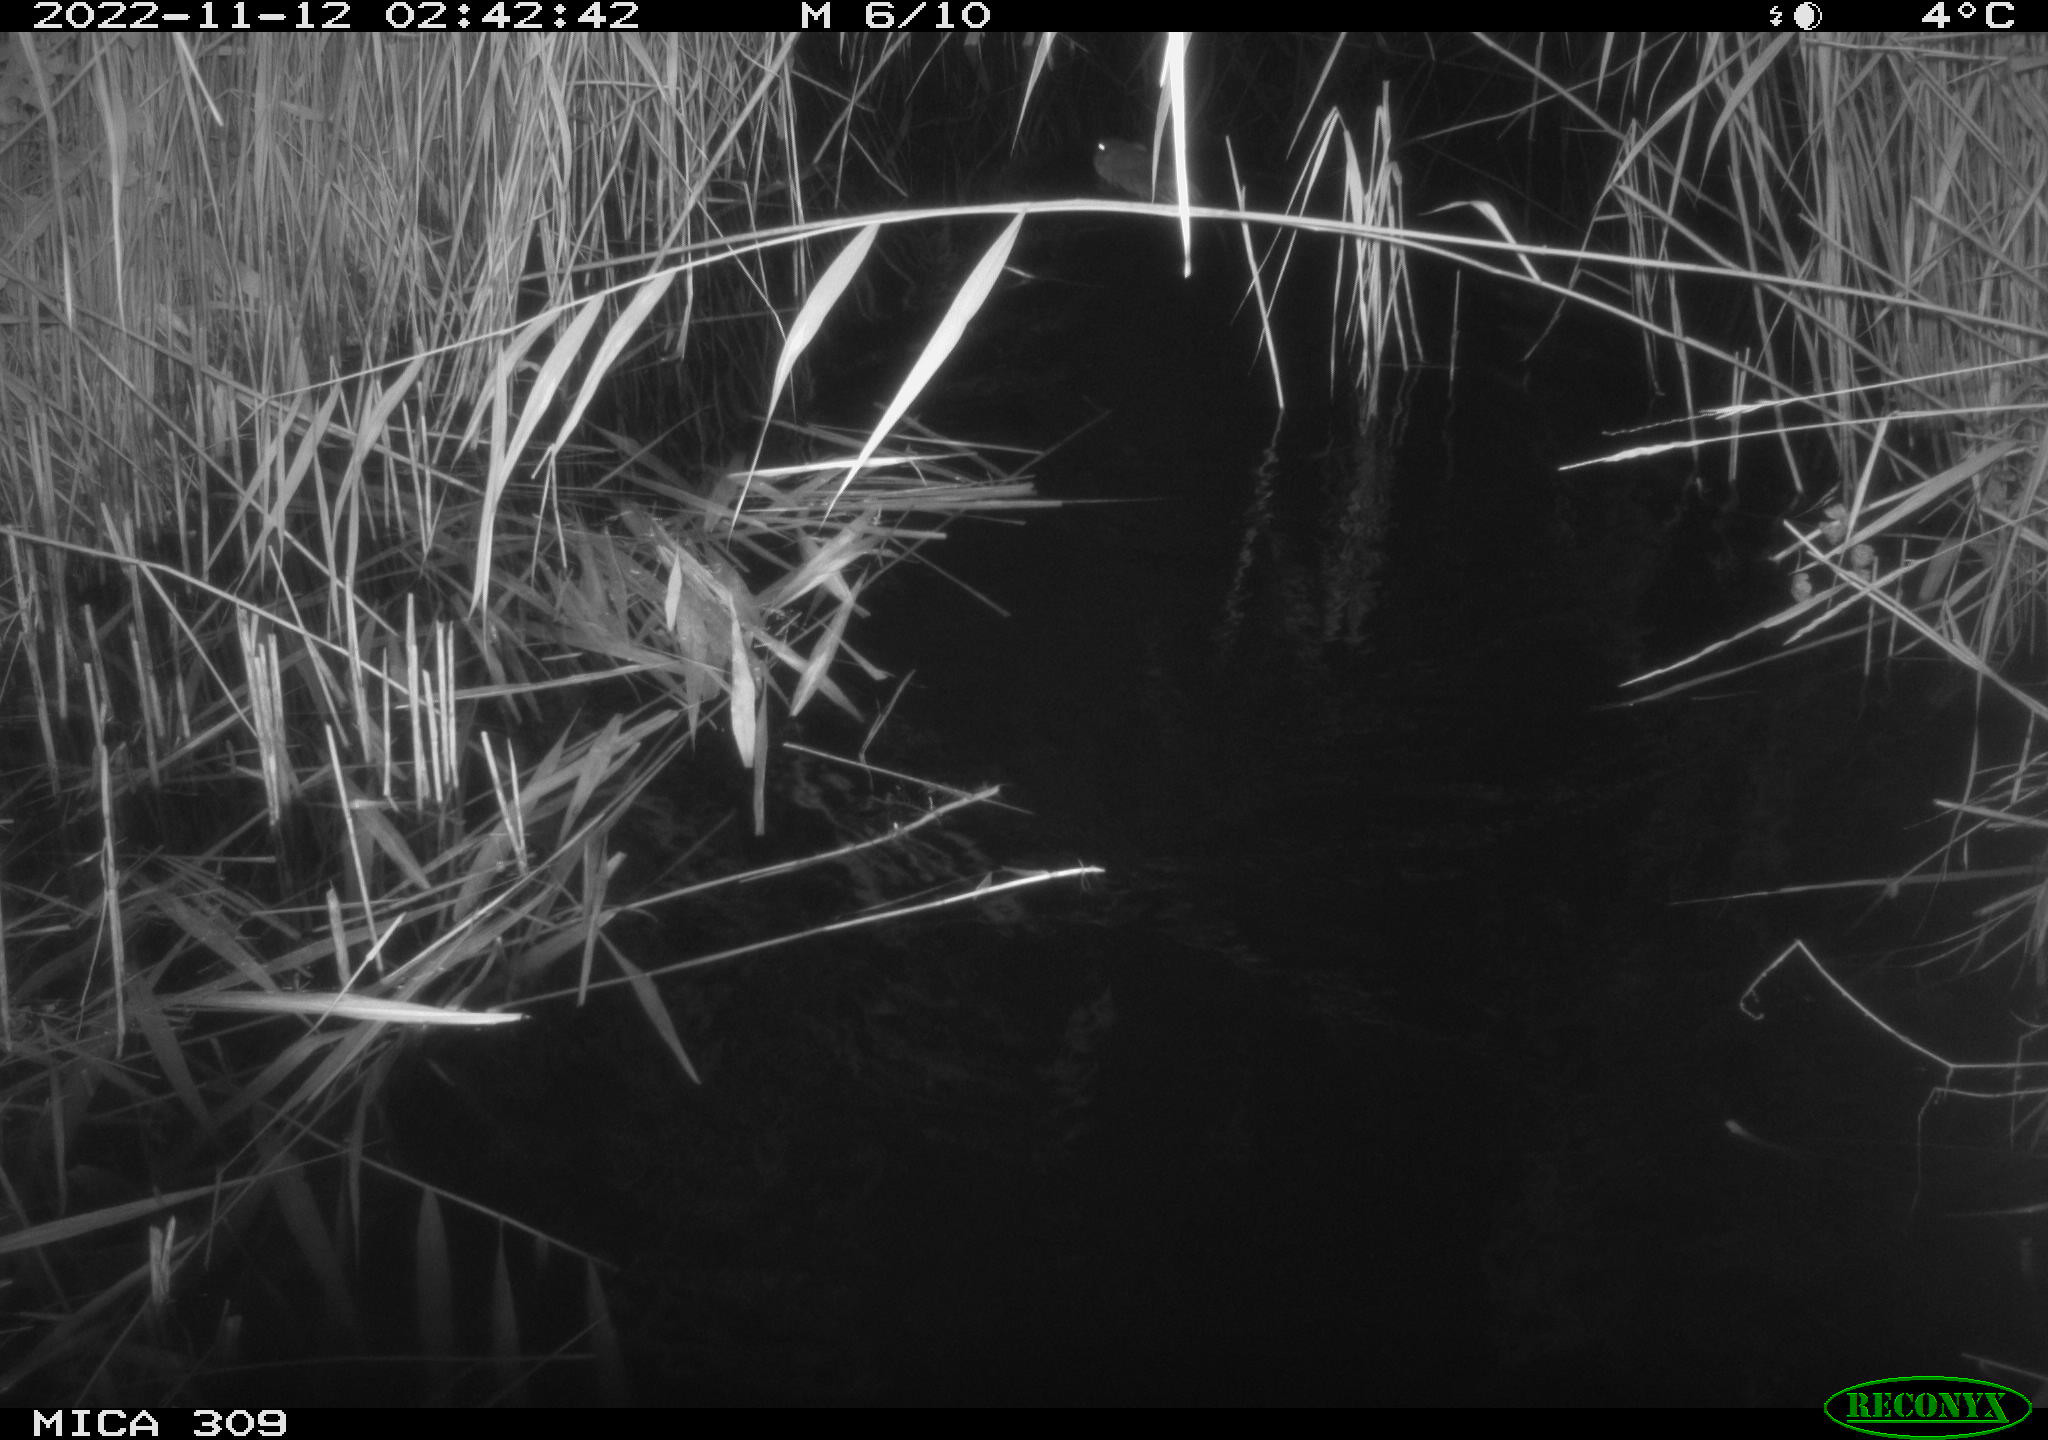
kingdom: Animalia
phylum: Chordata
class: Mammalia
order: Rodentia
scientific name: Rodentia
